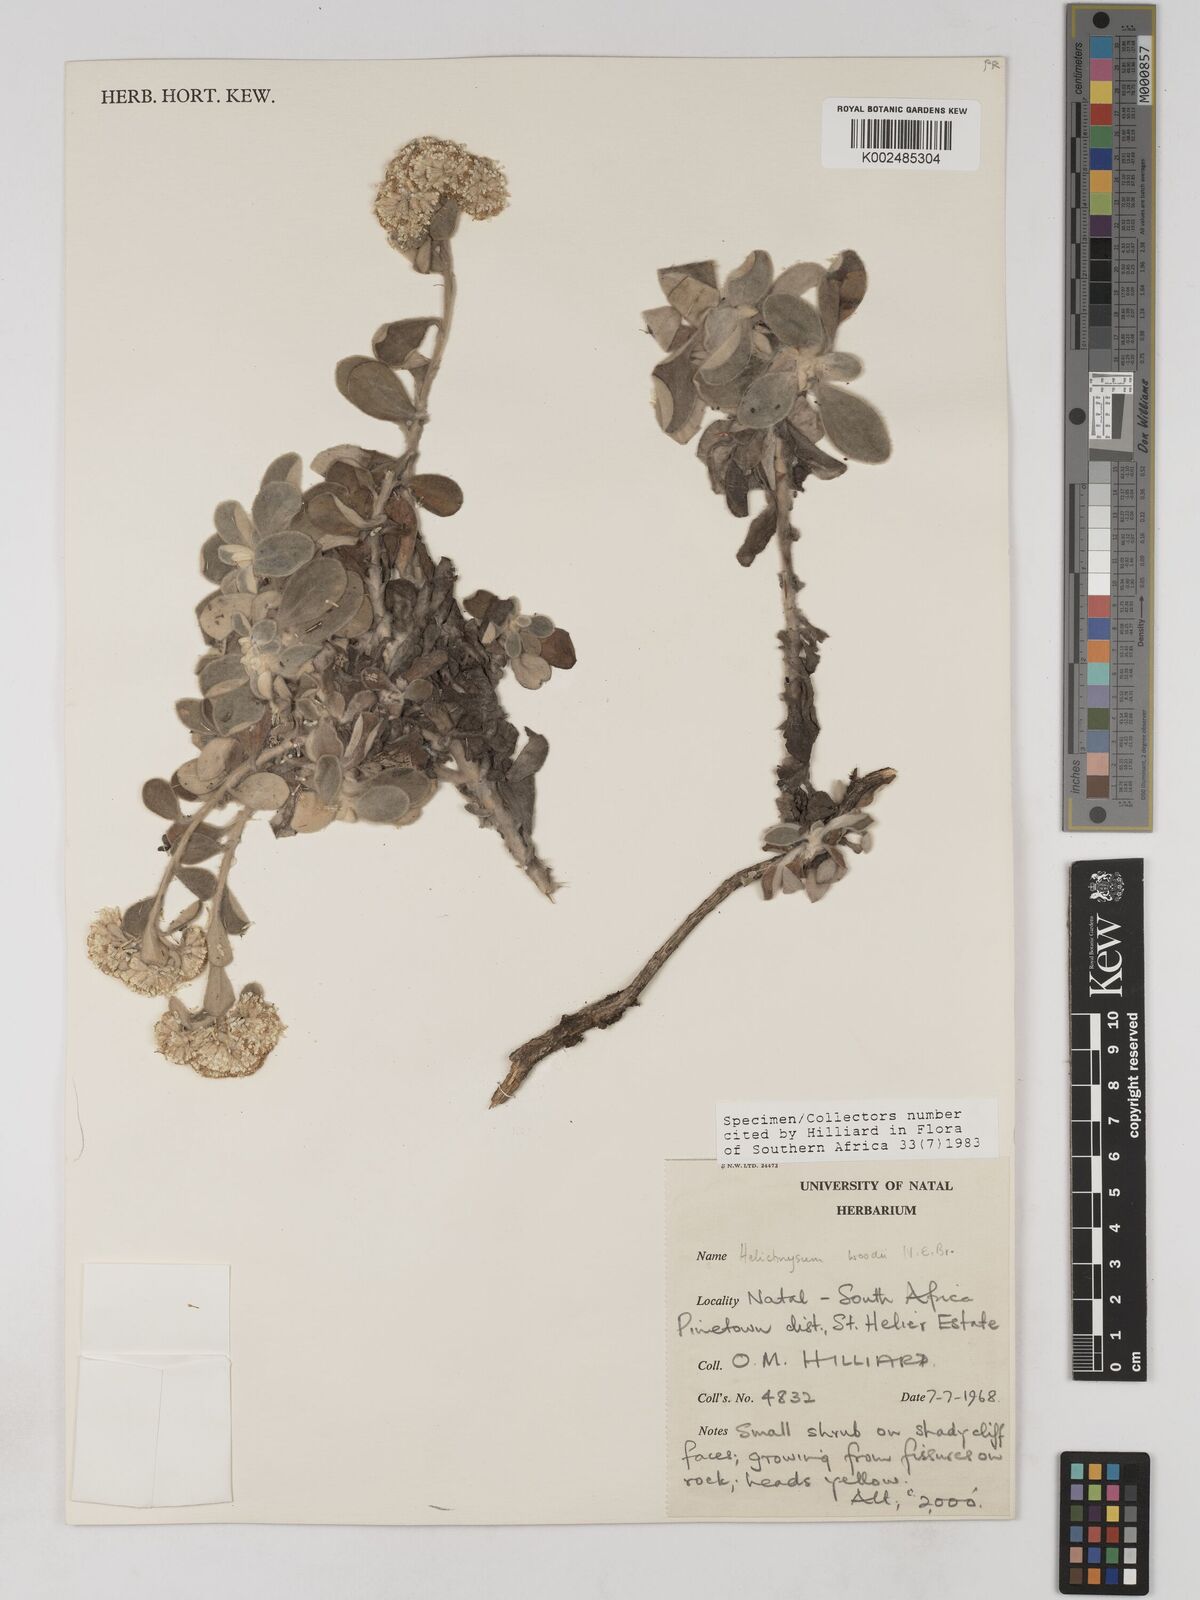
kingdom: Plantae
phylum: Tracheophyta
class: Magnoliopsida
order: Asterales
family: Asteraceae
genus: Helichrysum
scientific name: Helichrysum woodii
